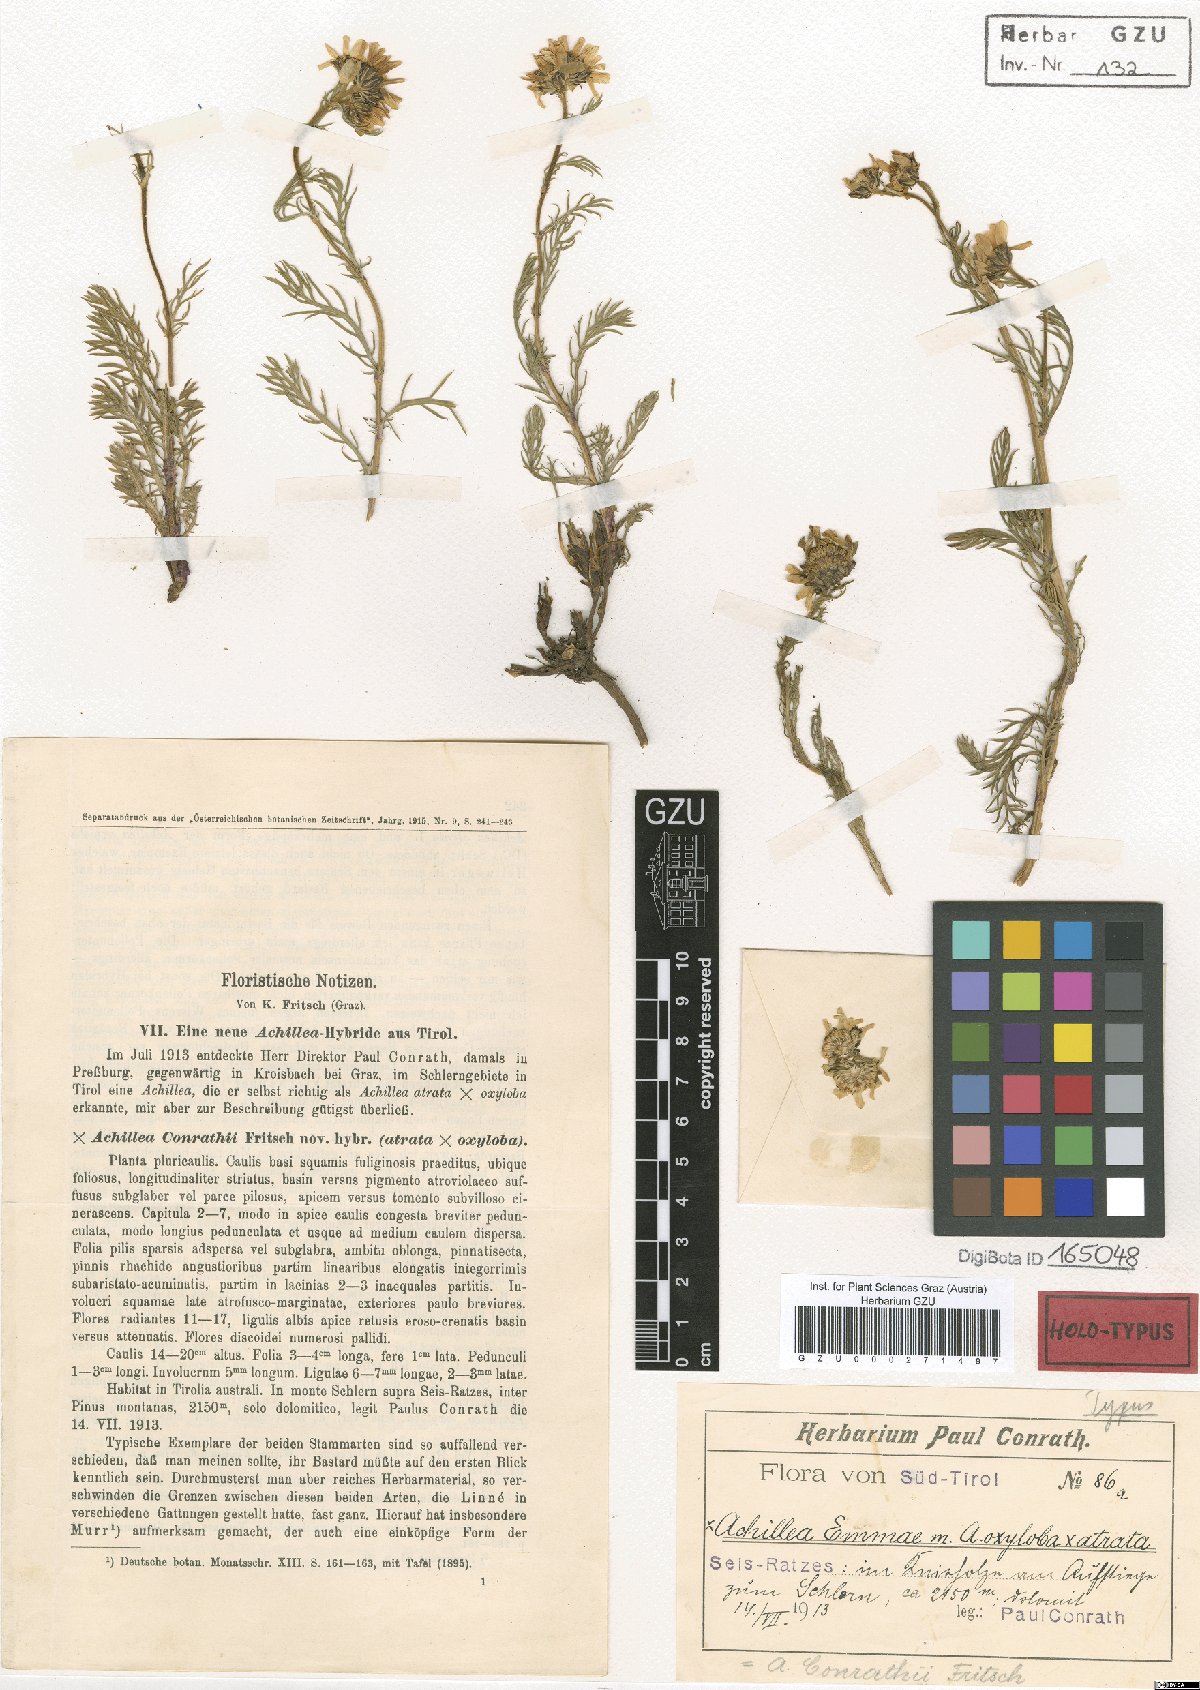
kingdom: Plantae
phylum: Tracheophyta
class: Magnoliopsida
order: Asterales
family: Asteraceae
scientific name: Asteraceae
